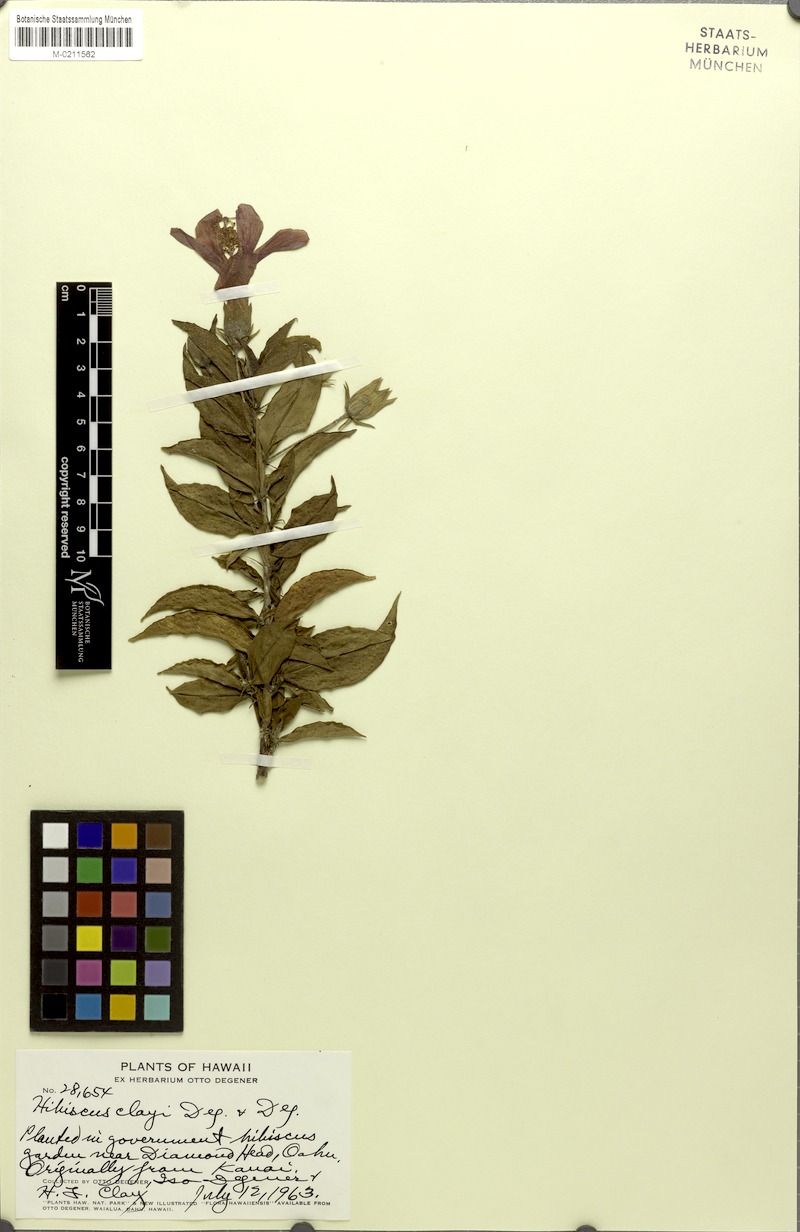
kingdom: Plantae
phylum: Tracheophyta
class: Magnoliopsida
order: Malvales
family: Malvaceae
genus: Hibiscus
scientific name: Hibiscus clayi
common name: Clay's hibiscus
